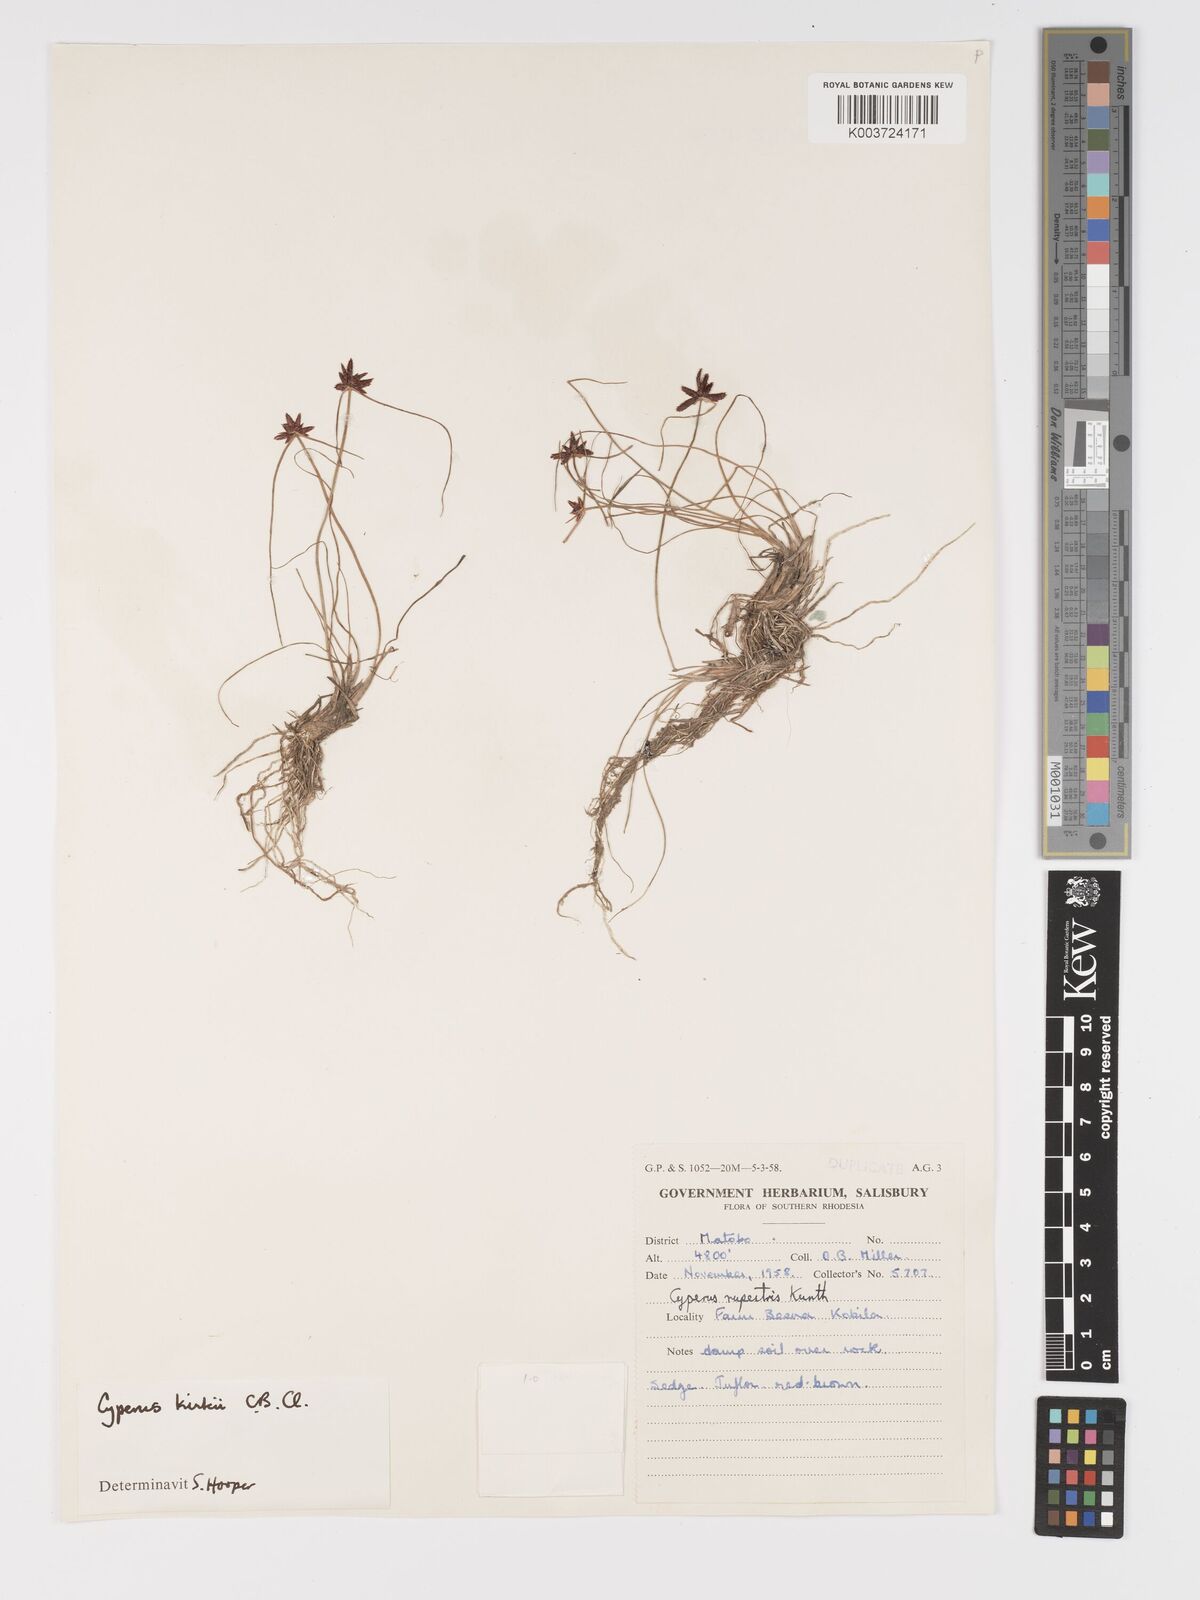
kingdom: Plantae
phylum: Tracheophyta
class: Liliopsida
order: Poales
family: Cyperaceae
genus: Cyperus
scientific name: Cyperus rupestris
